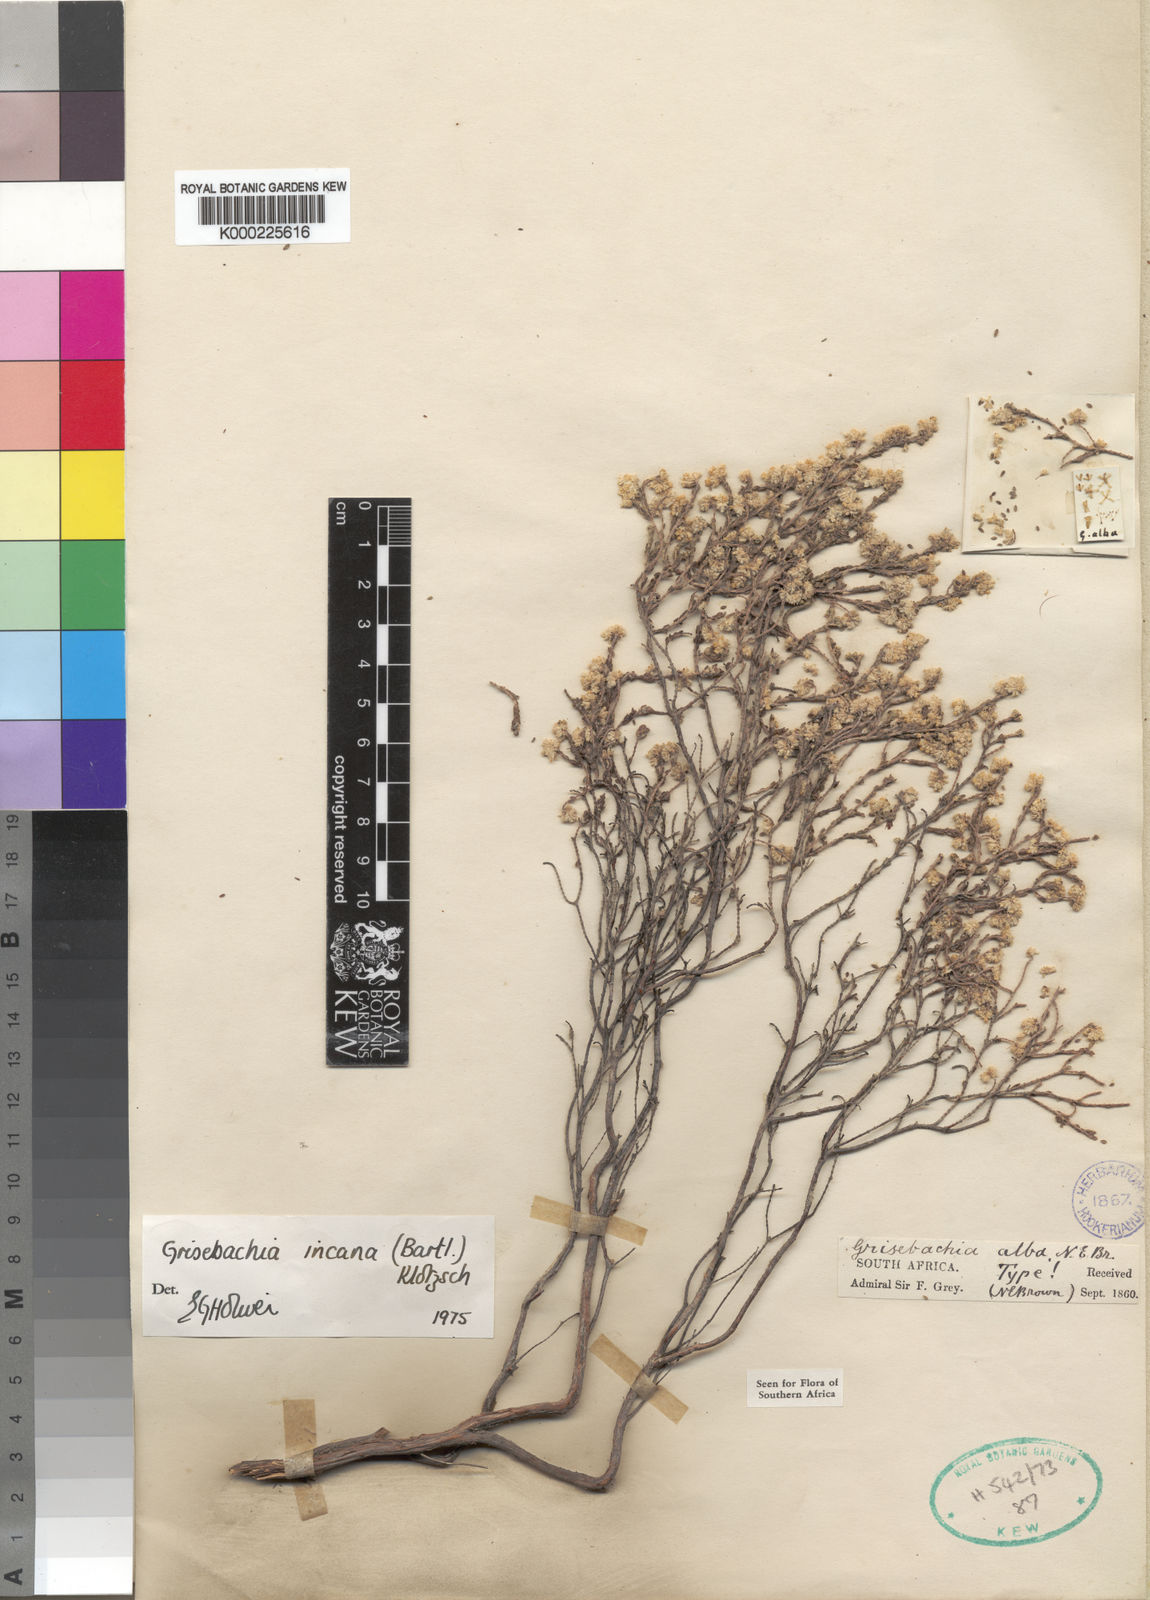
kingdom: Plantae
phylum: Tracheophyta
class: Magnoliopsida
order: Ericales
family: Ericaceae
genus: Erica
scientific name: Erica plumosa
